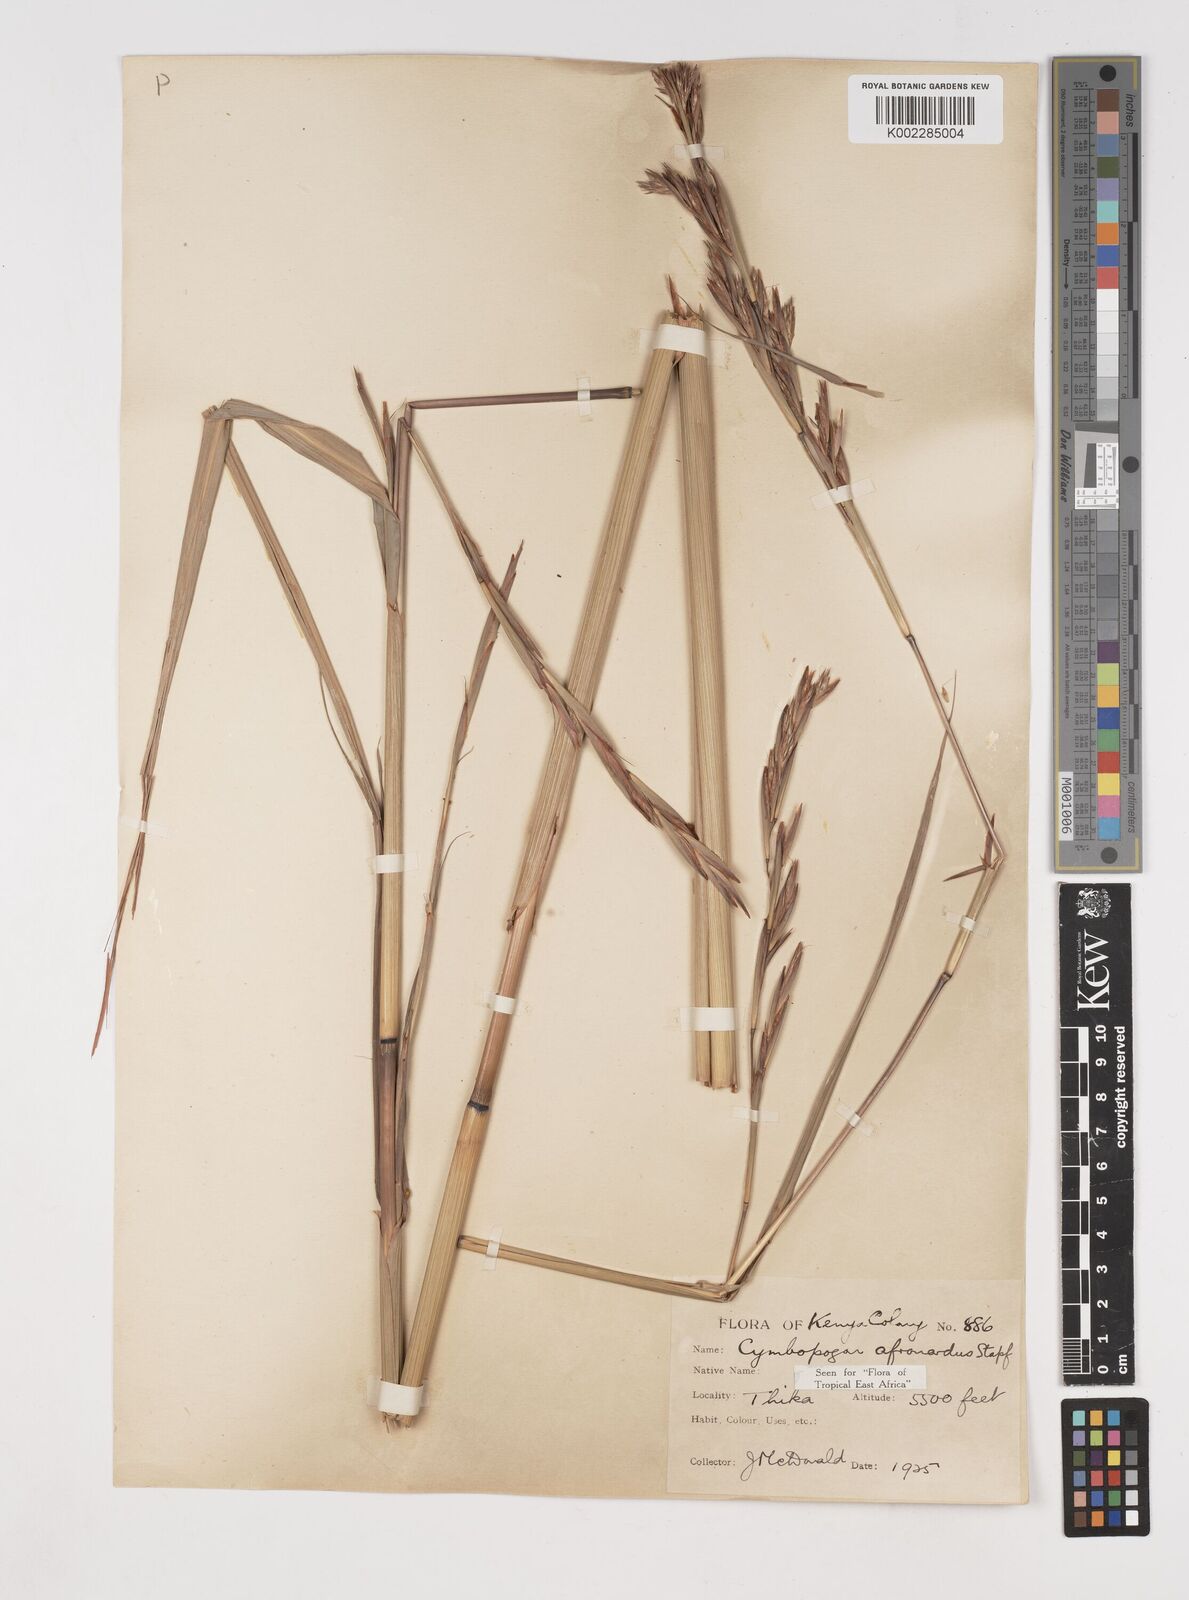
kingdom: Plantae
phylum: Tracheophyta
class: Liliopsida
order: Poales
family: Poaceae
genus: Cymbopogon
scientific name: Cymbopogon nardus
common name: Giant turpentine grass
